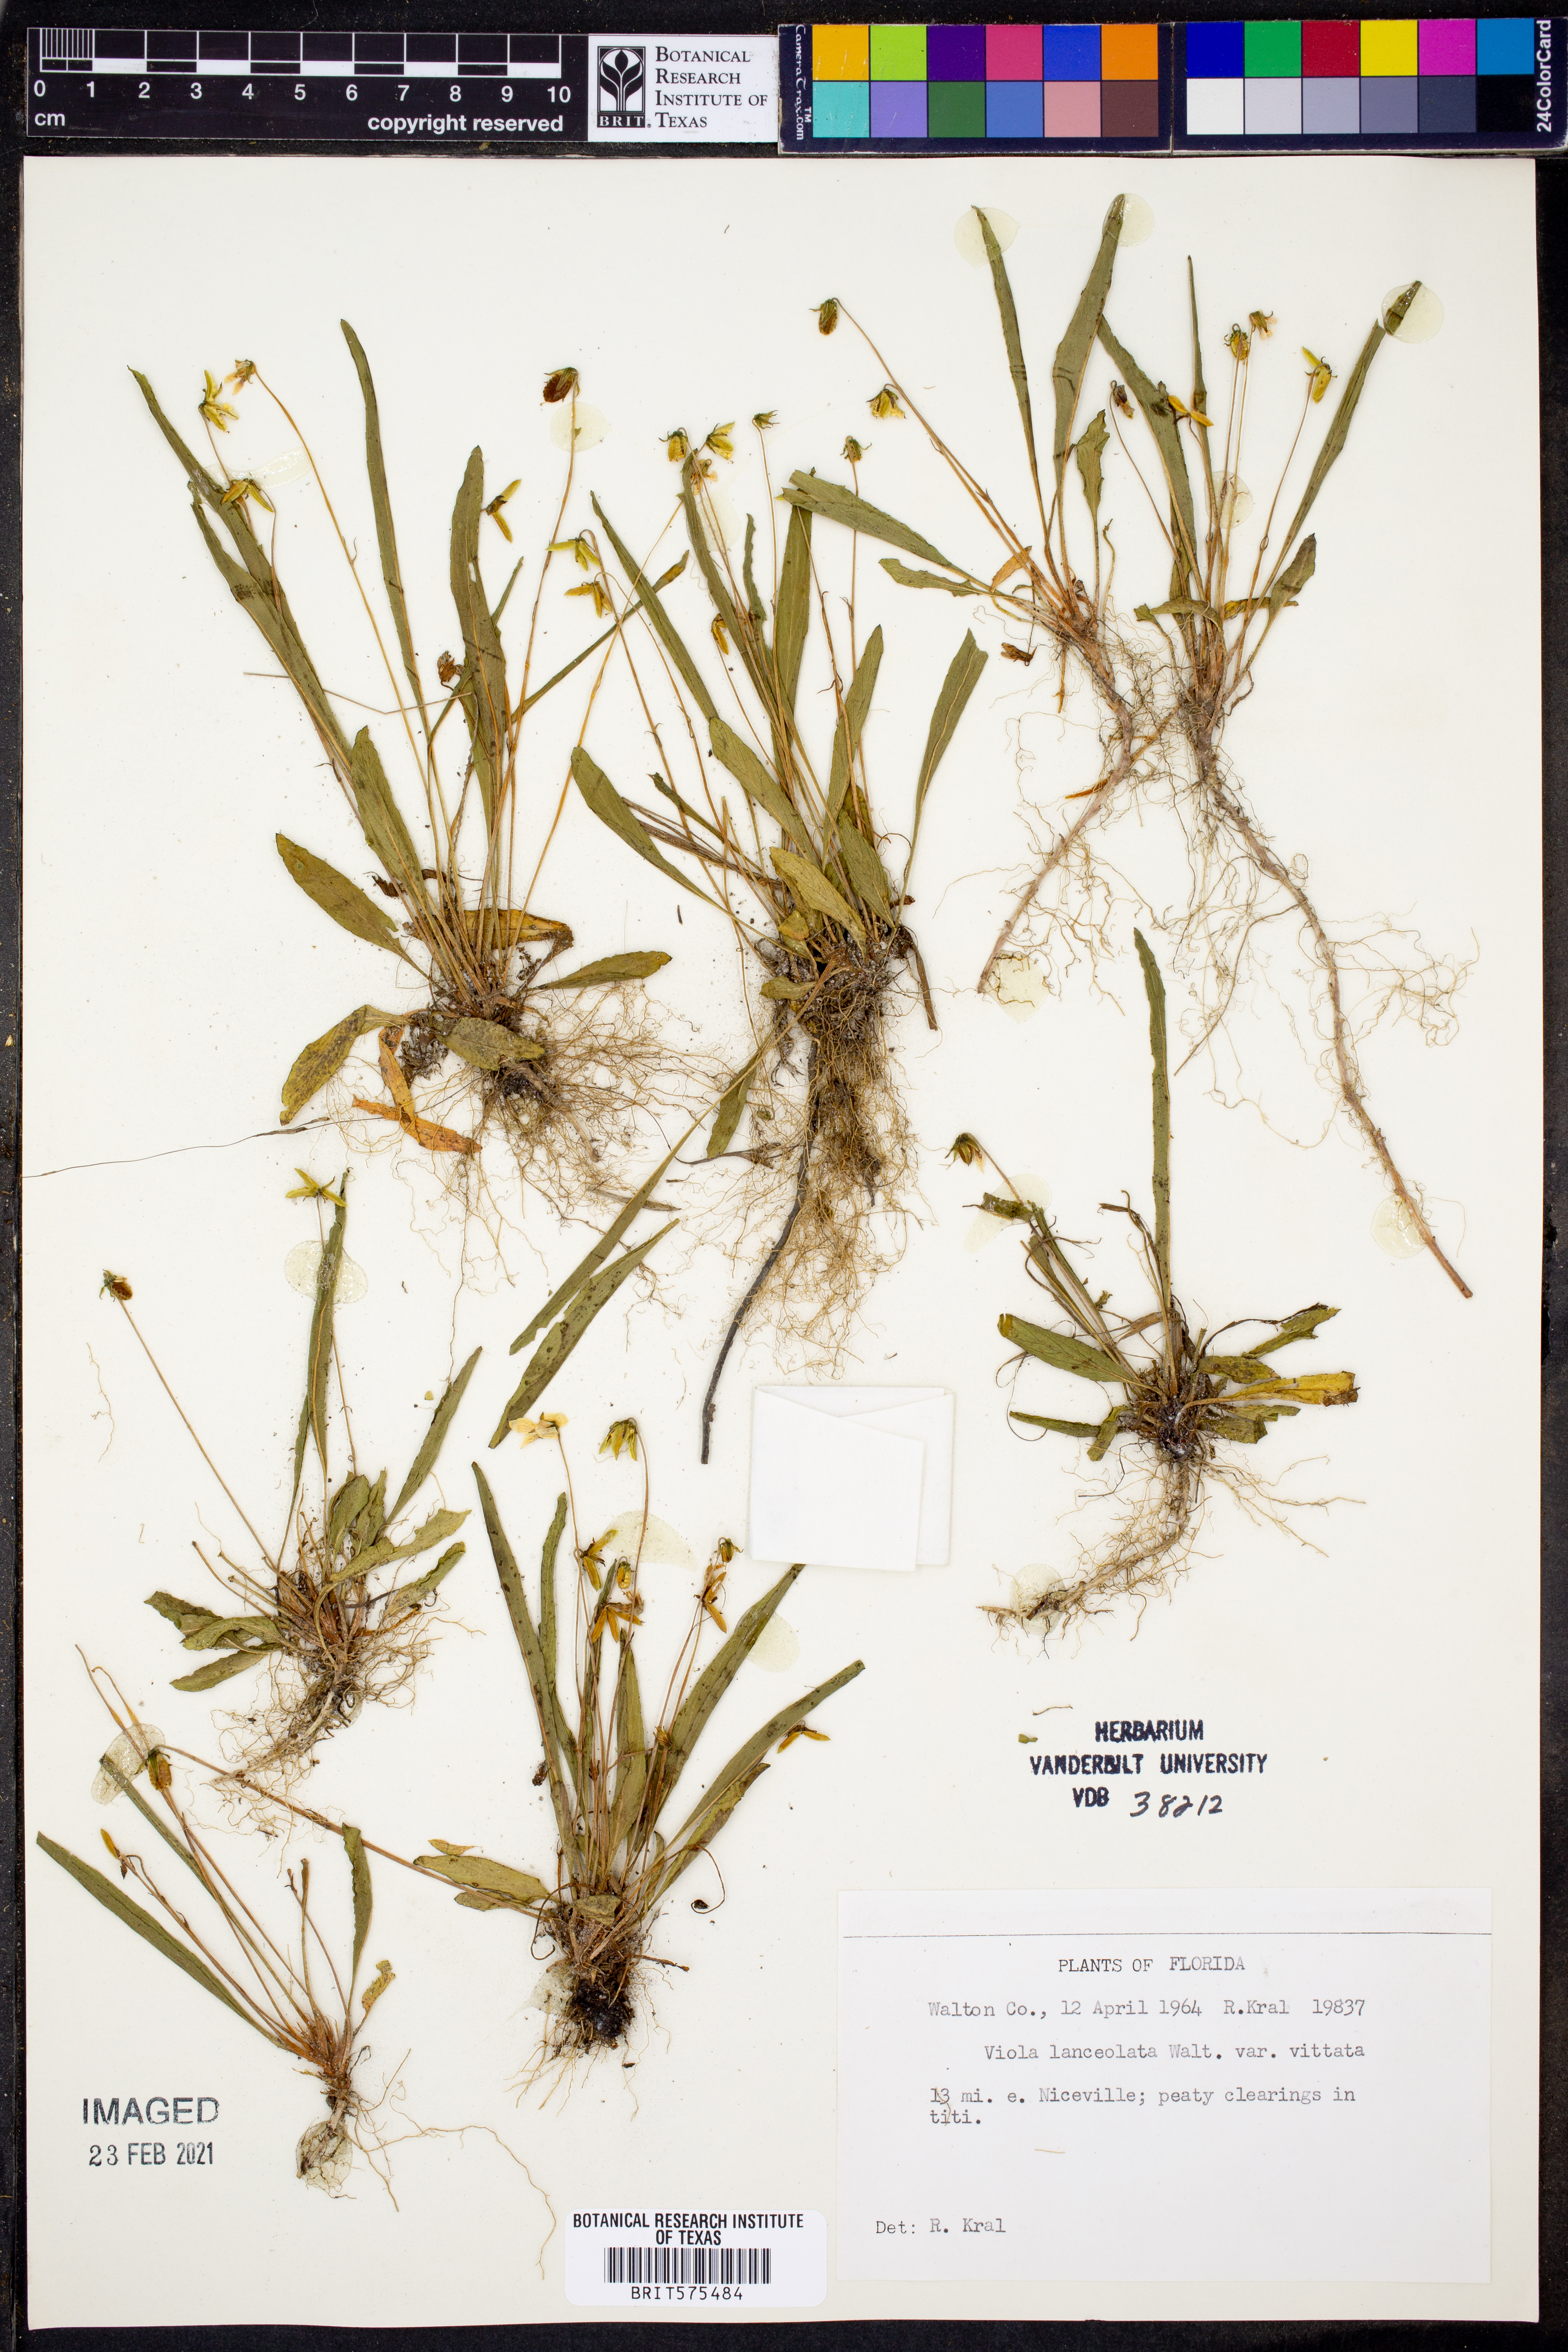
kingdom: Plantae
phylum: Tracheophyta
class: Magnoliopsida
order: Malpighiales
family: Violaceae
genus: Viola
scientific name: Viola vittata
